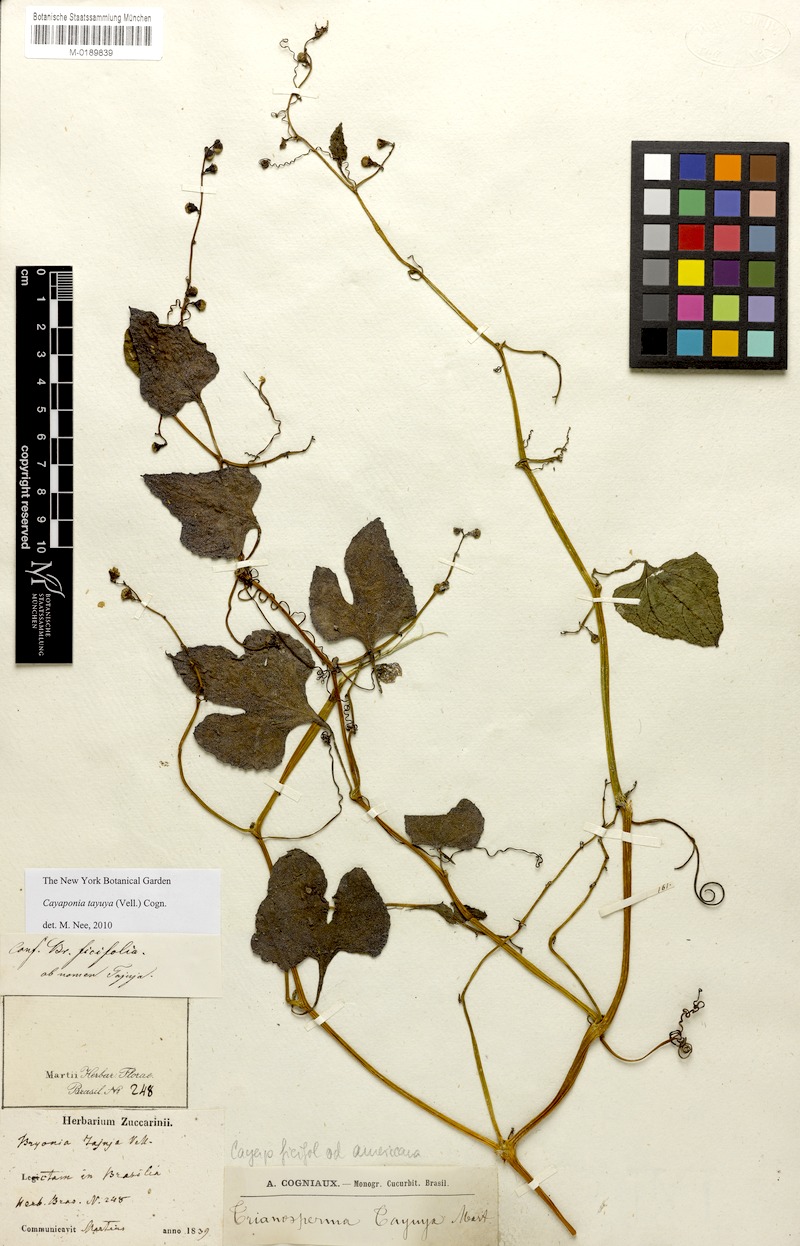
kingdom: Plantae
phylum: Tracheophyta
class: Magnoliopsida
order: Cucurbitales
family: Cucurbitaceae
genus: Cayaponia
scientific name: Cayaponia tayuya
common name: Tayuya
